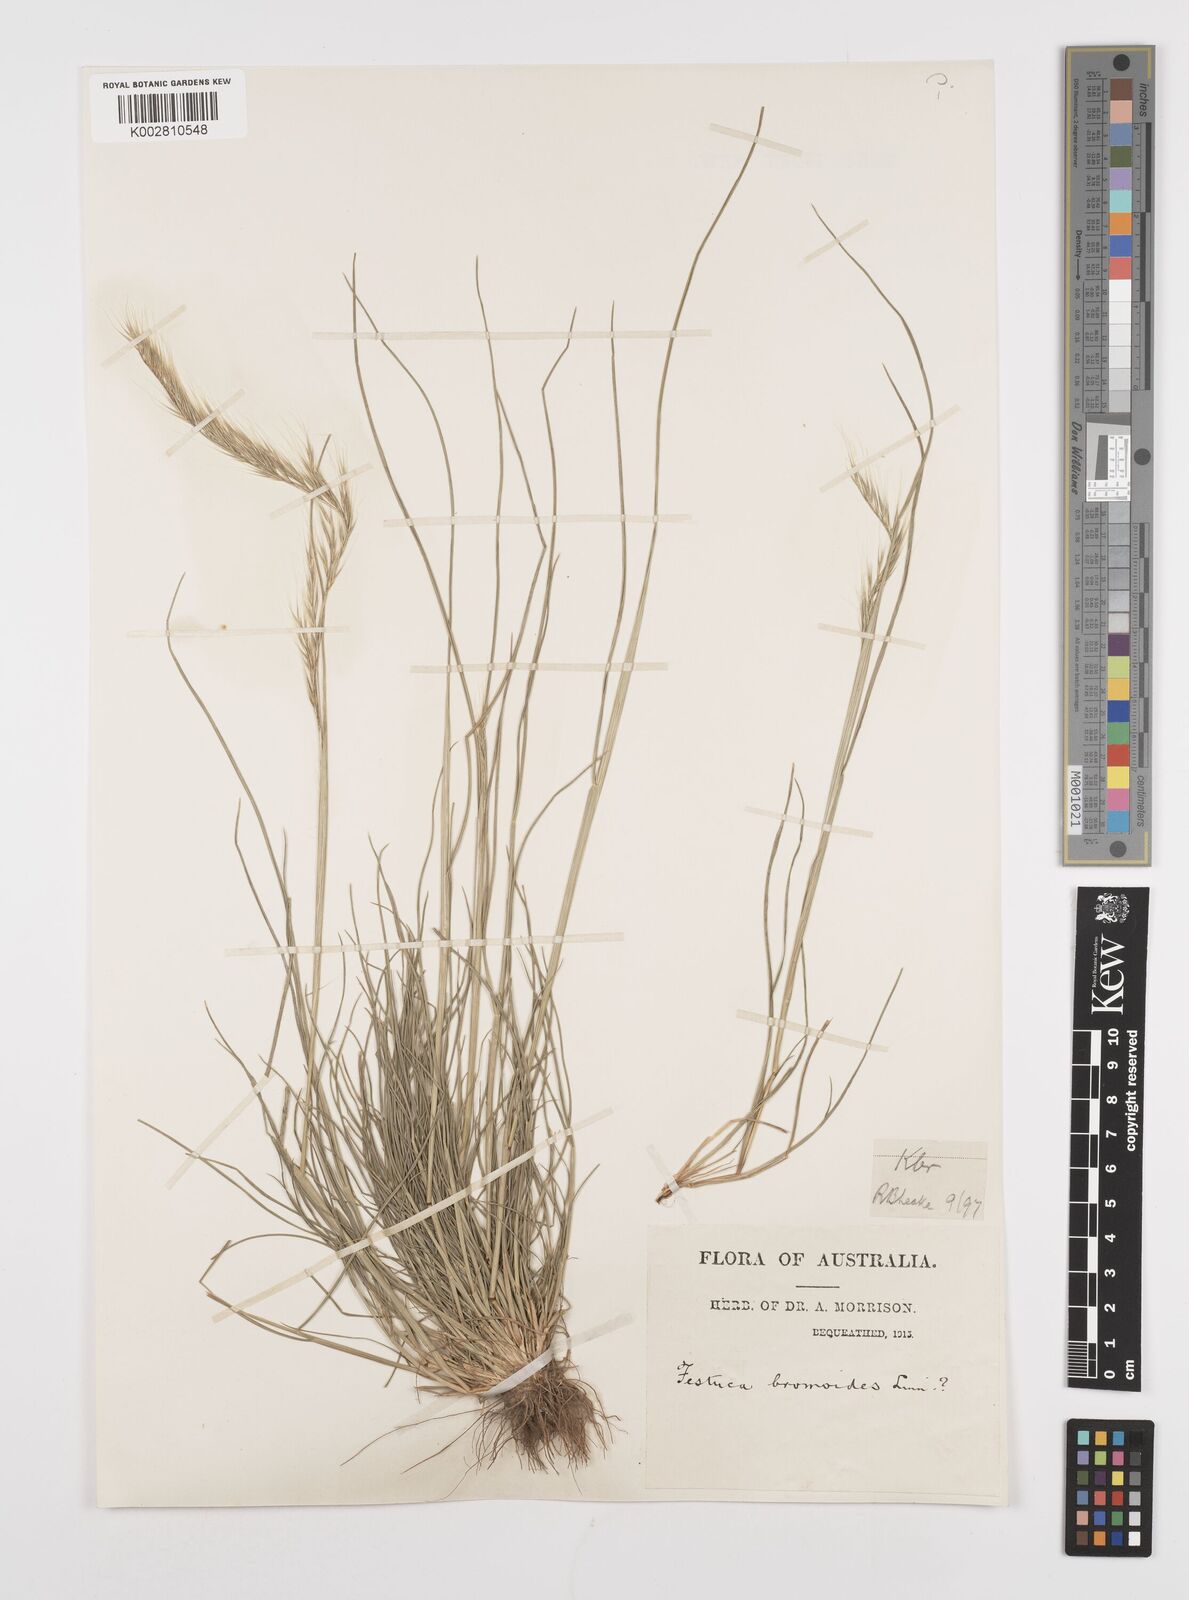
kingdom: Plantae
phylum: Tracheophyta
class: Liliopsida
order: Poales
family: Poaceae
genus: Festuca
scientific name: Festuca myuros
